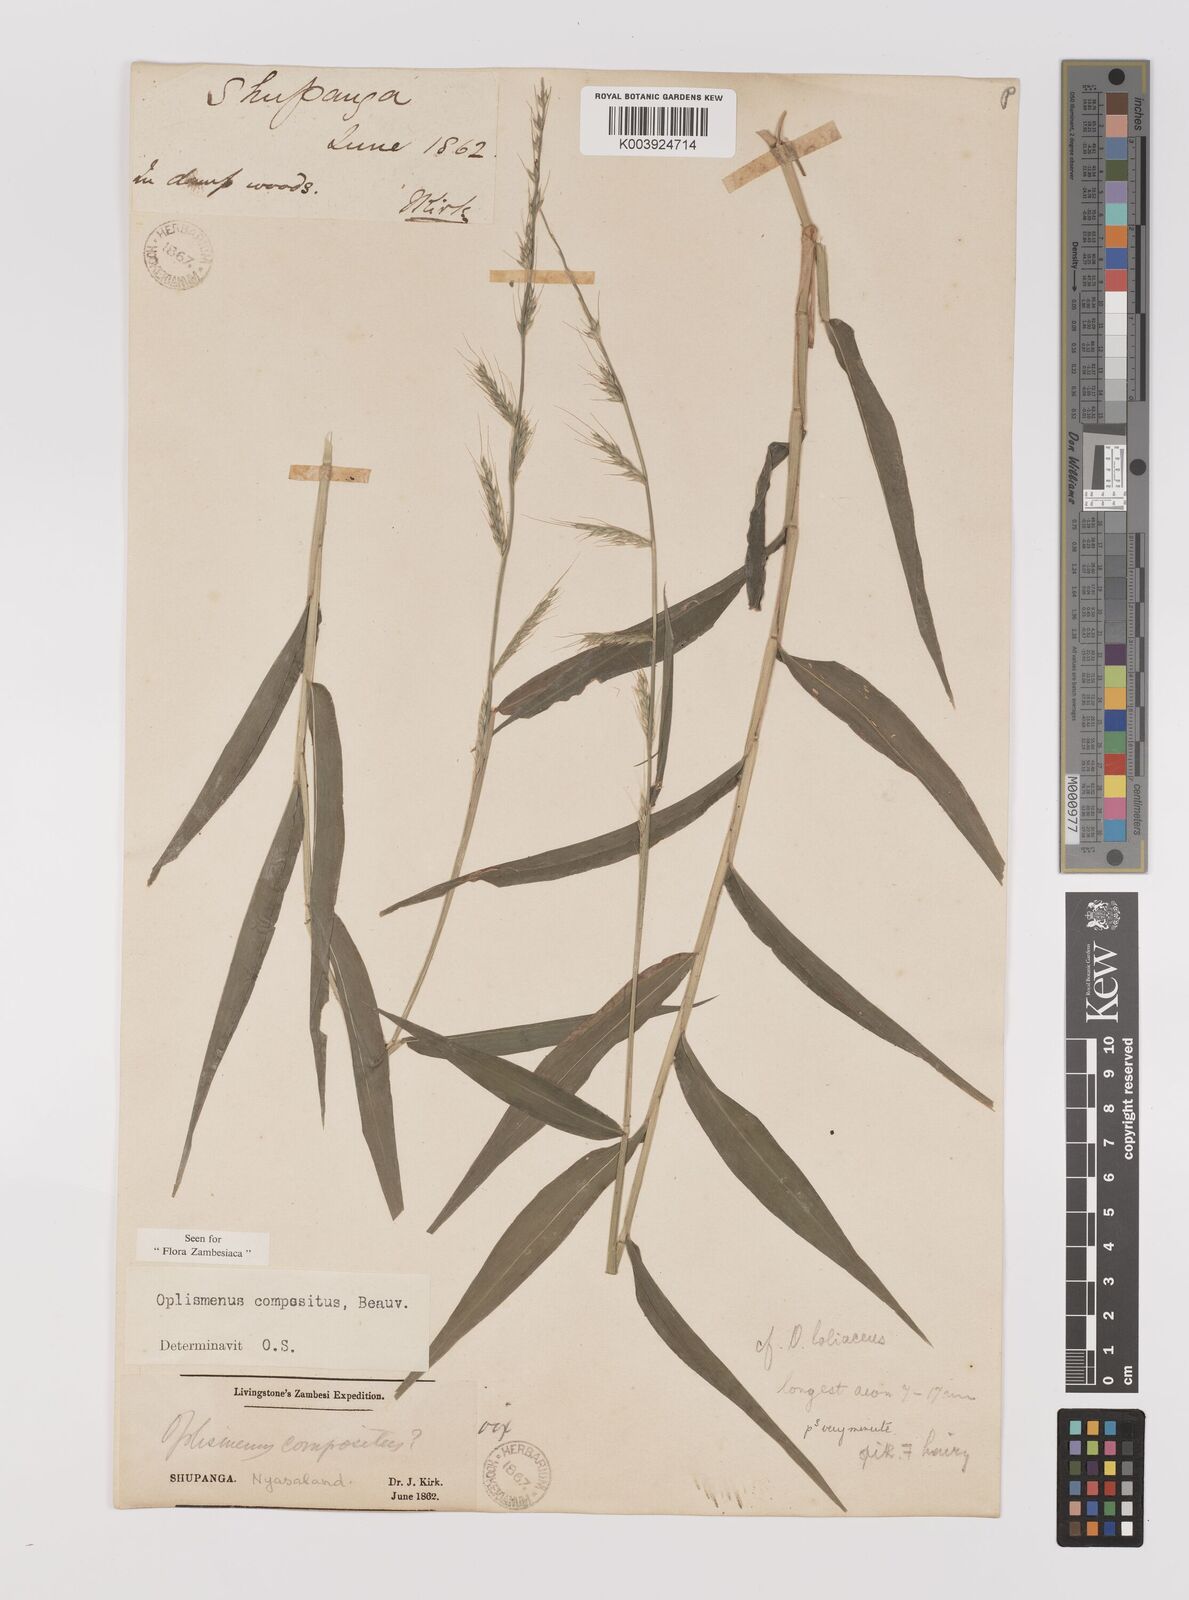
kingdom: Plantae
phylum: Tracheophyta
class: Liliopsida
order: Poales
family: Poaceae
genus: Oplismenus
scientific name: Oplismenus compositus
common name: Running mountain grass
